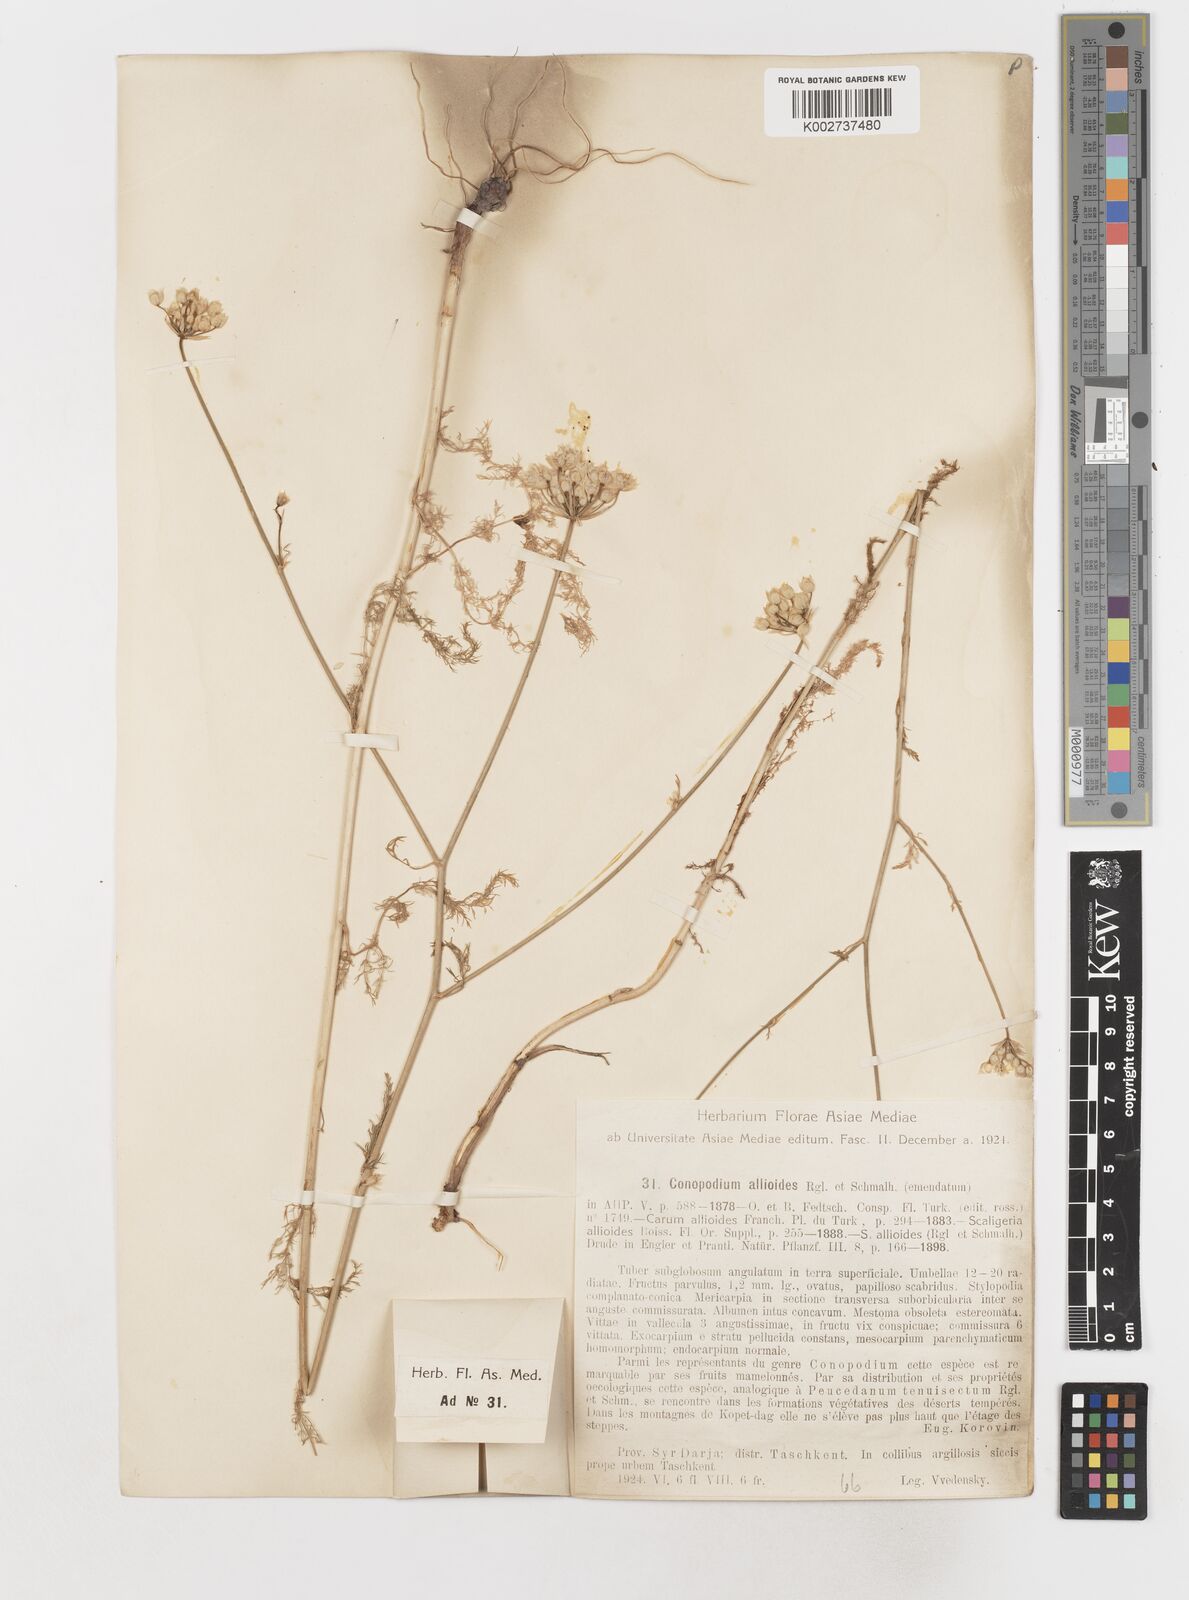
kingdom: Plantae
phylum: Tracheophyta
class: Magnoliopsida
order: Apiales
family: Apiaceae
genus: Scaligeria
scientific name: Scaligeria allioides
